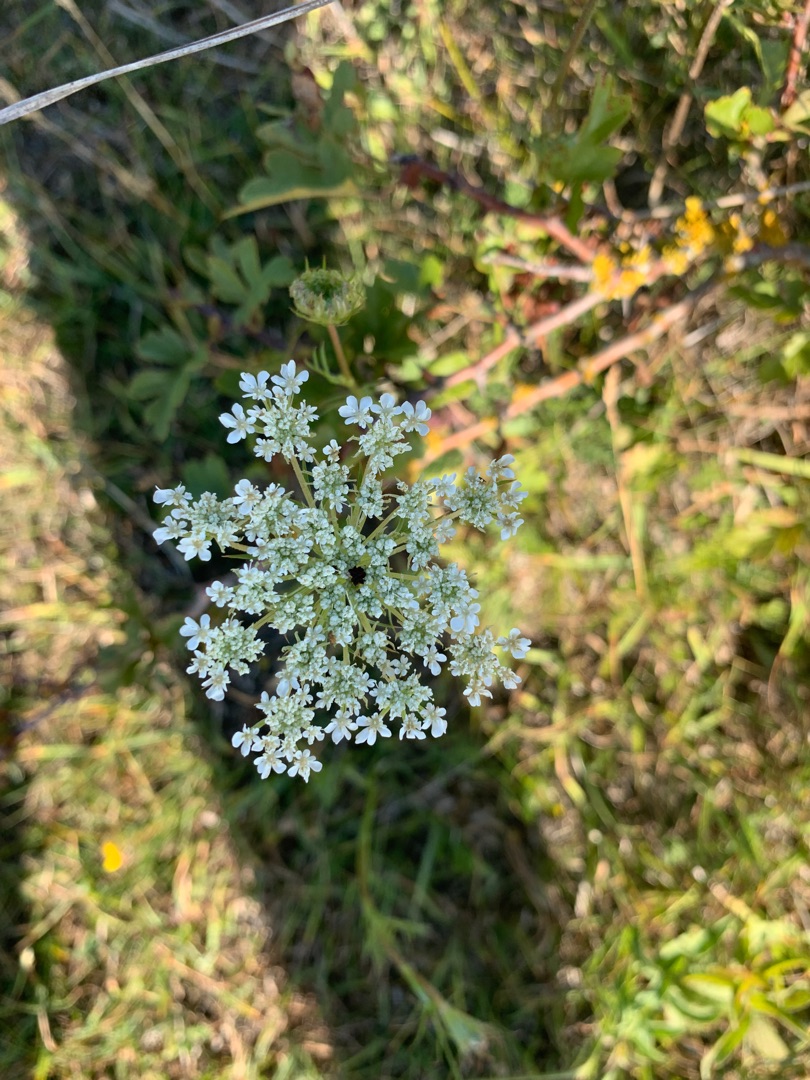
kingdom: Plantae
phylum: Tracheophyta
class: Magnoliopsida
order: Apiales
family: Apiaceae
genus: Daucus
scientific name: Daucus carota
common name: Gulerod
